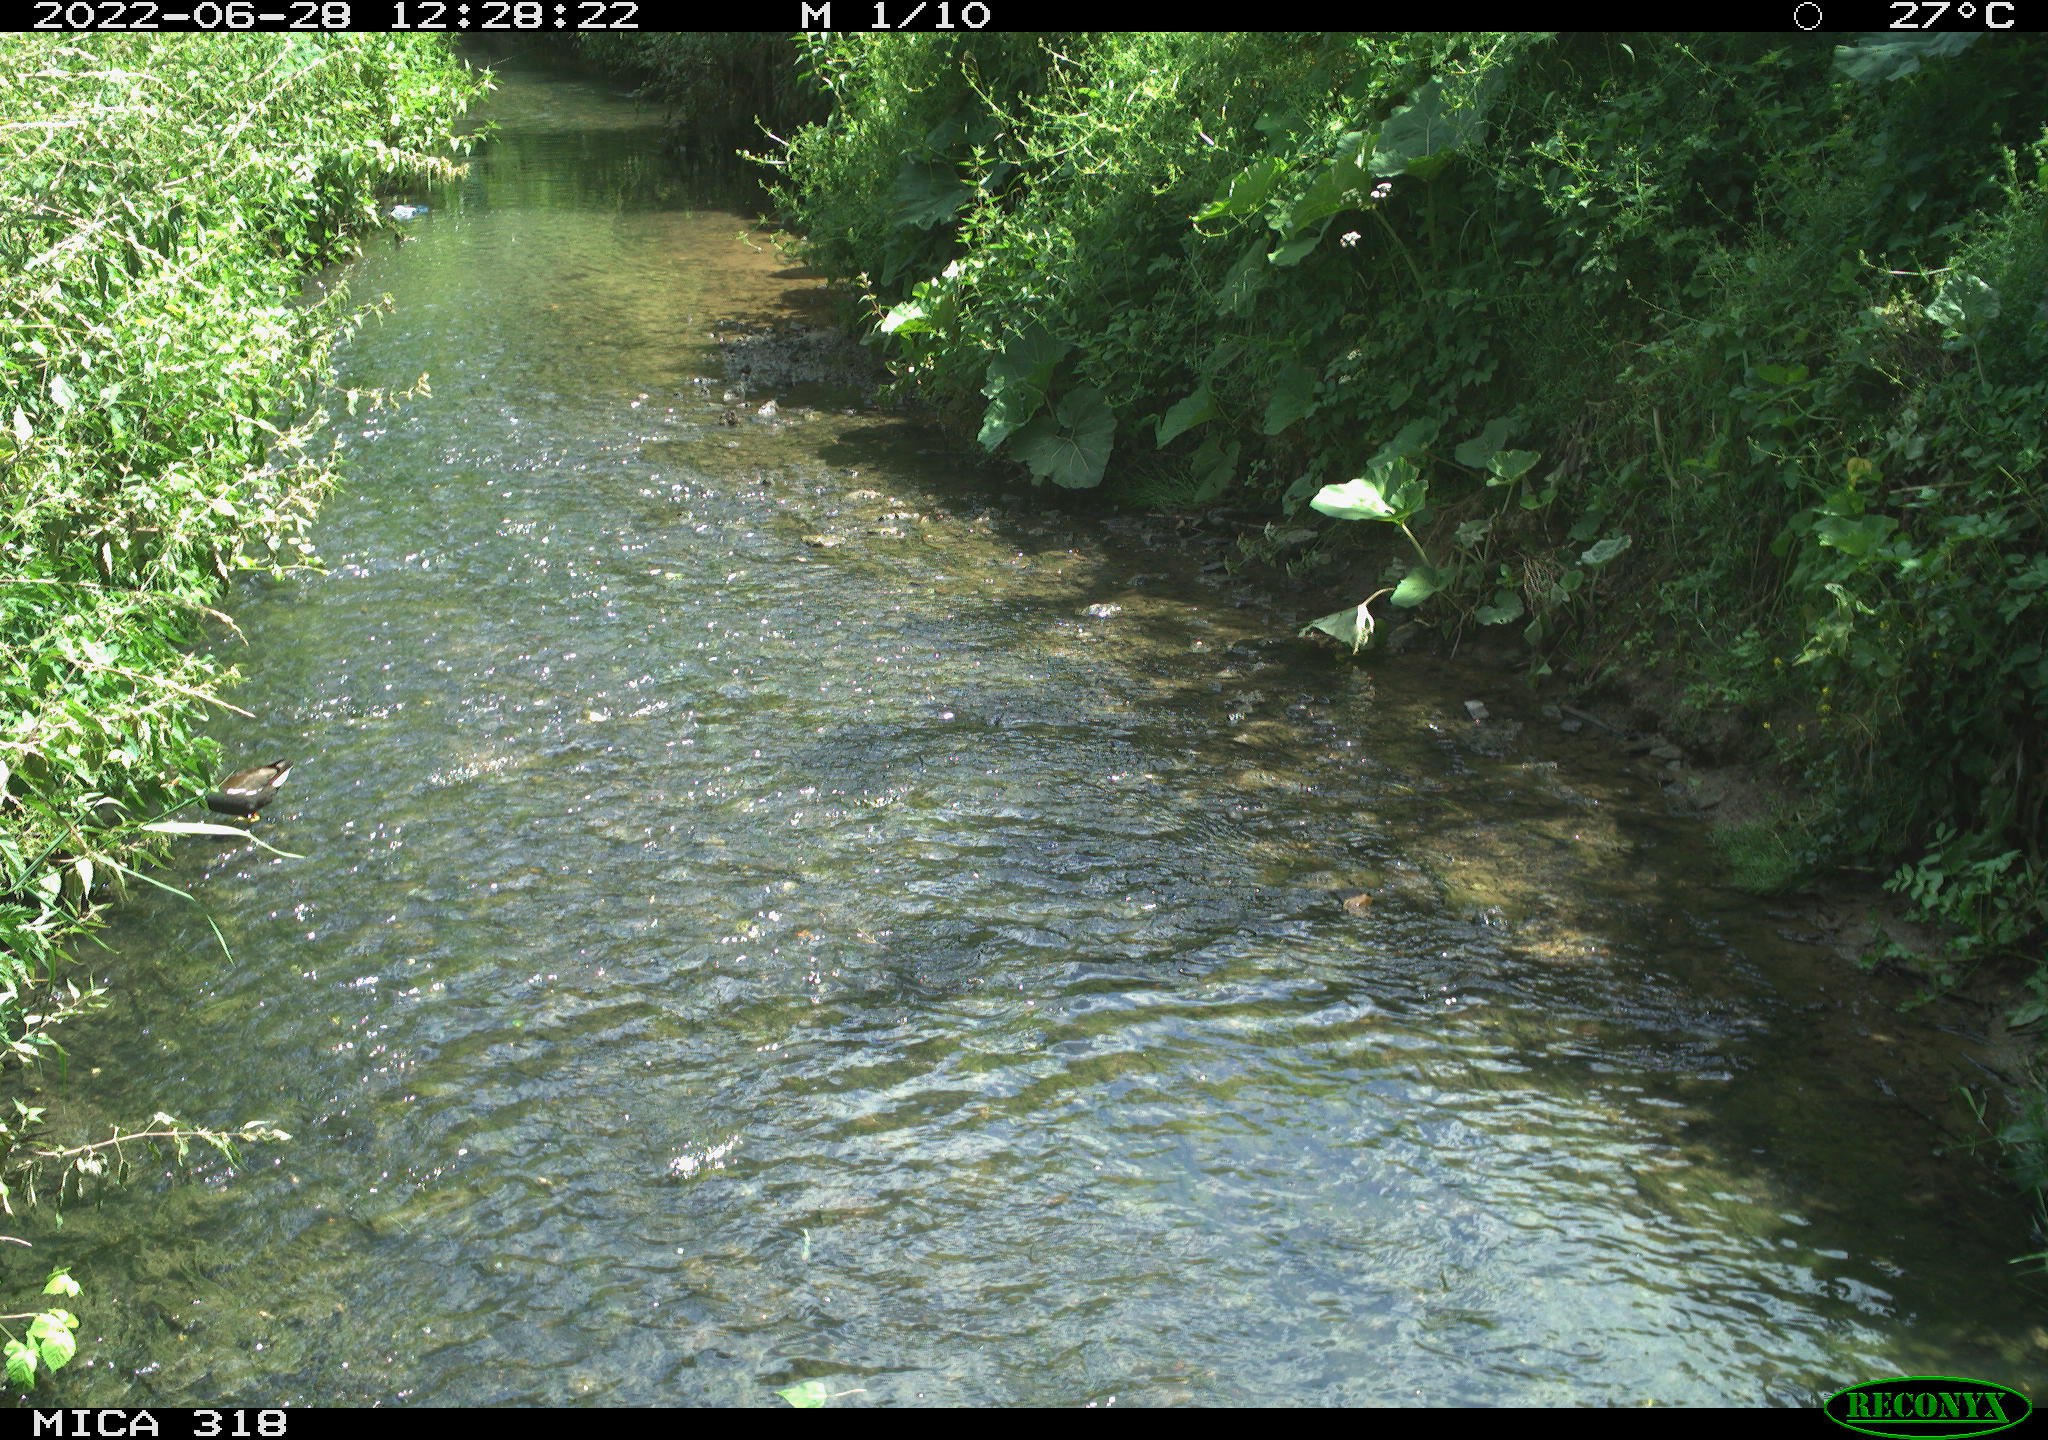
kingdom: Animalia
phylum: Chordata
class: Aves
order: Gruiformes
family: Rallidae
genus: Gallinula
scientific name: Gallinula chloropus
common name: Common moorhen
